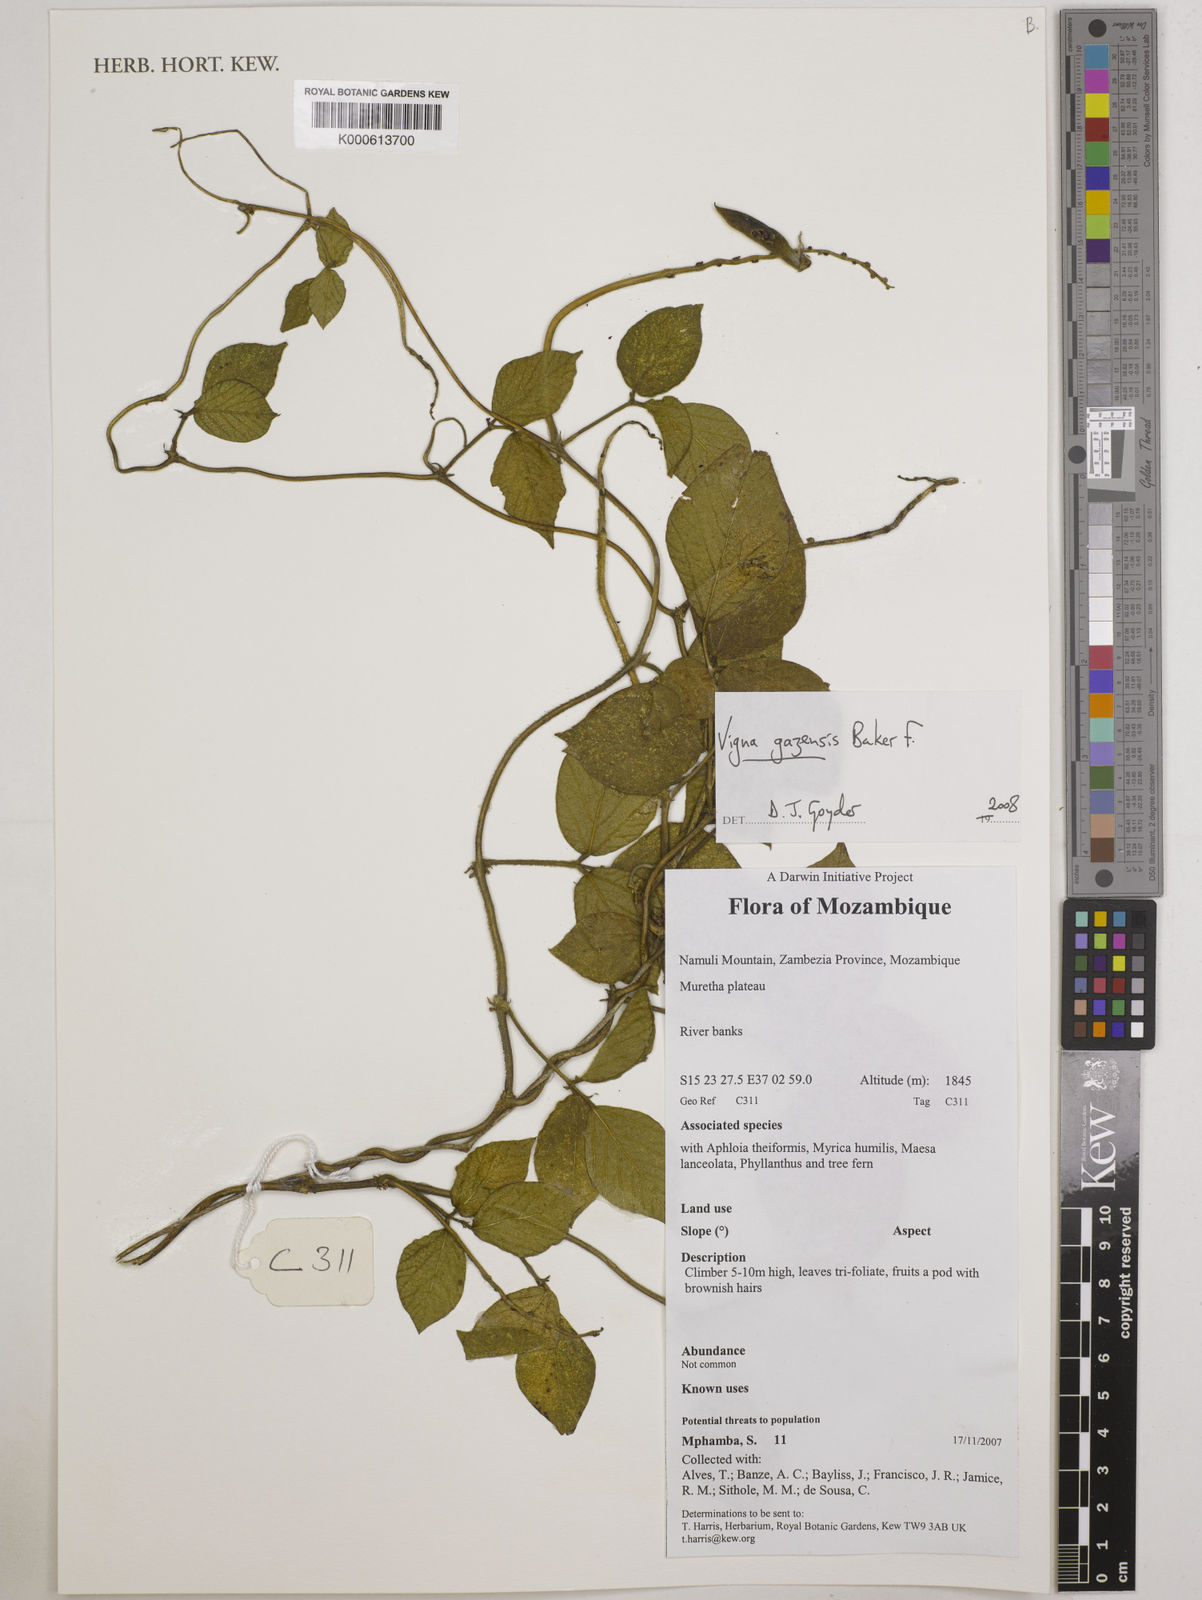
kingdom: Plantae
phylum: Tracheophyta
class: Magnoliopsida
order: Fabales
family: Fabaceae
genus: Vigna
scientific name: Vigna gazensis
